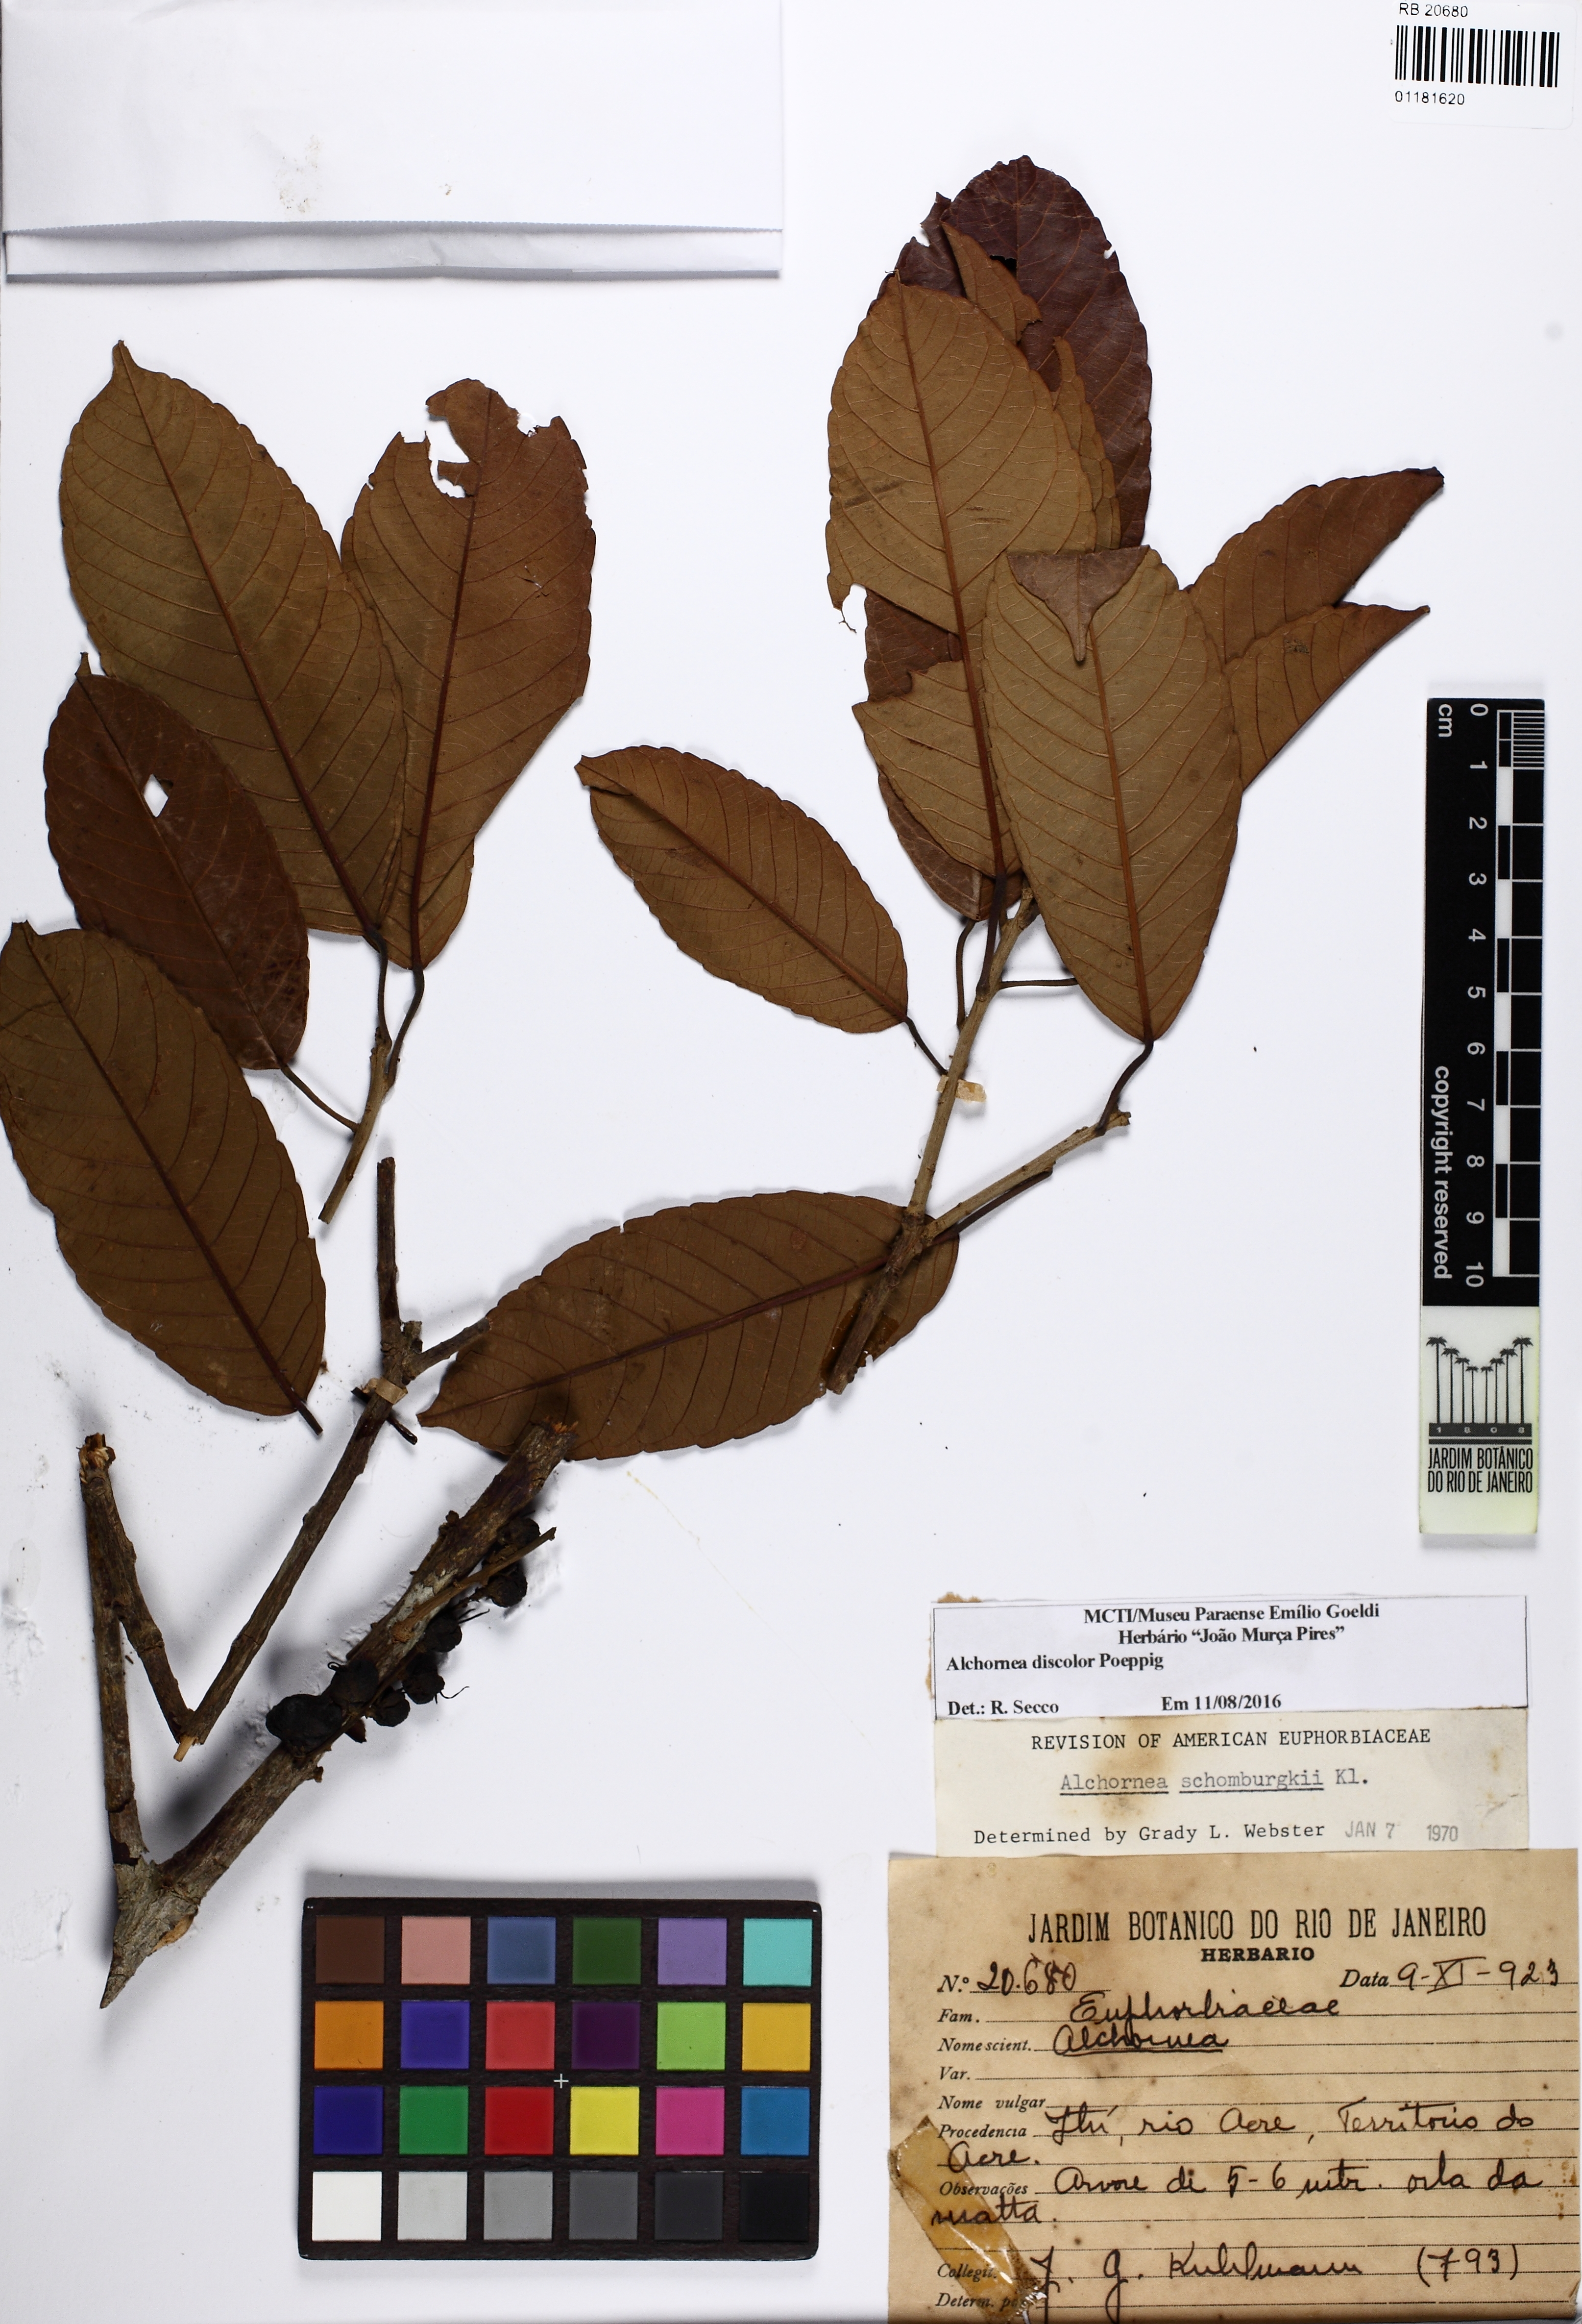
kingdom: Plantae
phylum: Tracheophyta
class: Magnoliopsida
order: Malpighiales
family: Euphorbiaceae
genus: Alchornea
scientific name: Alchornea discolor
